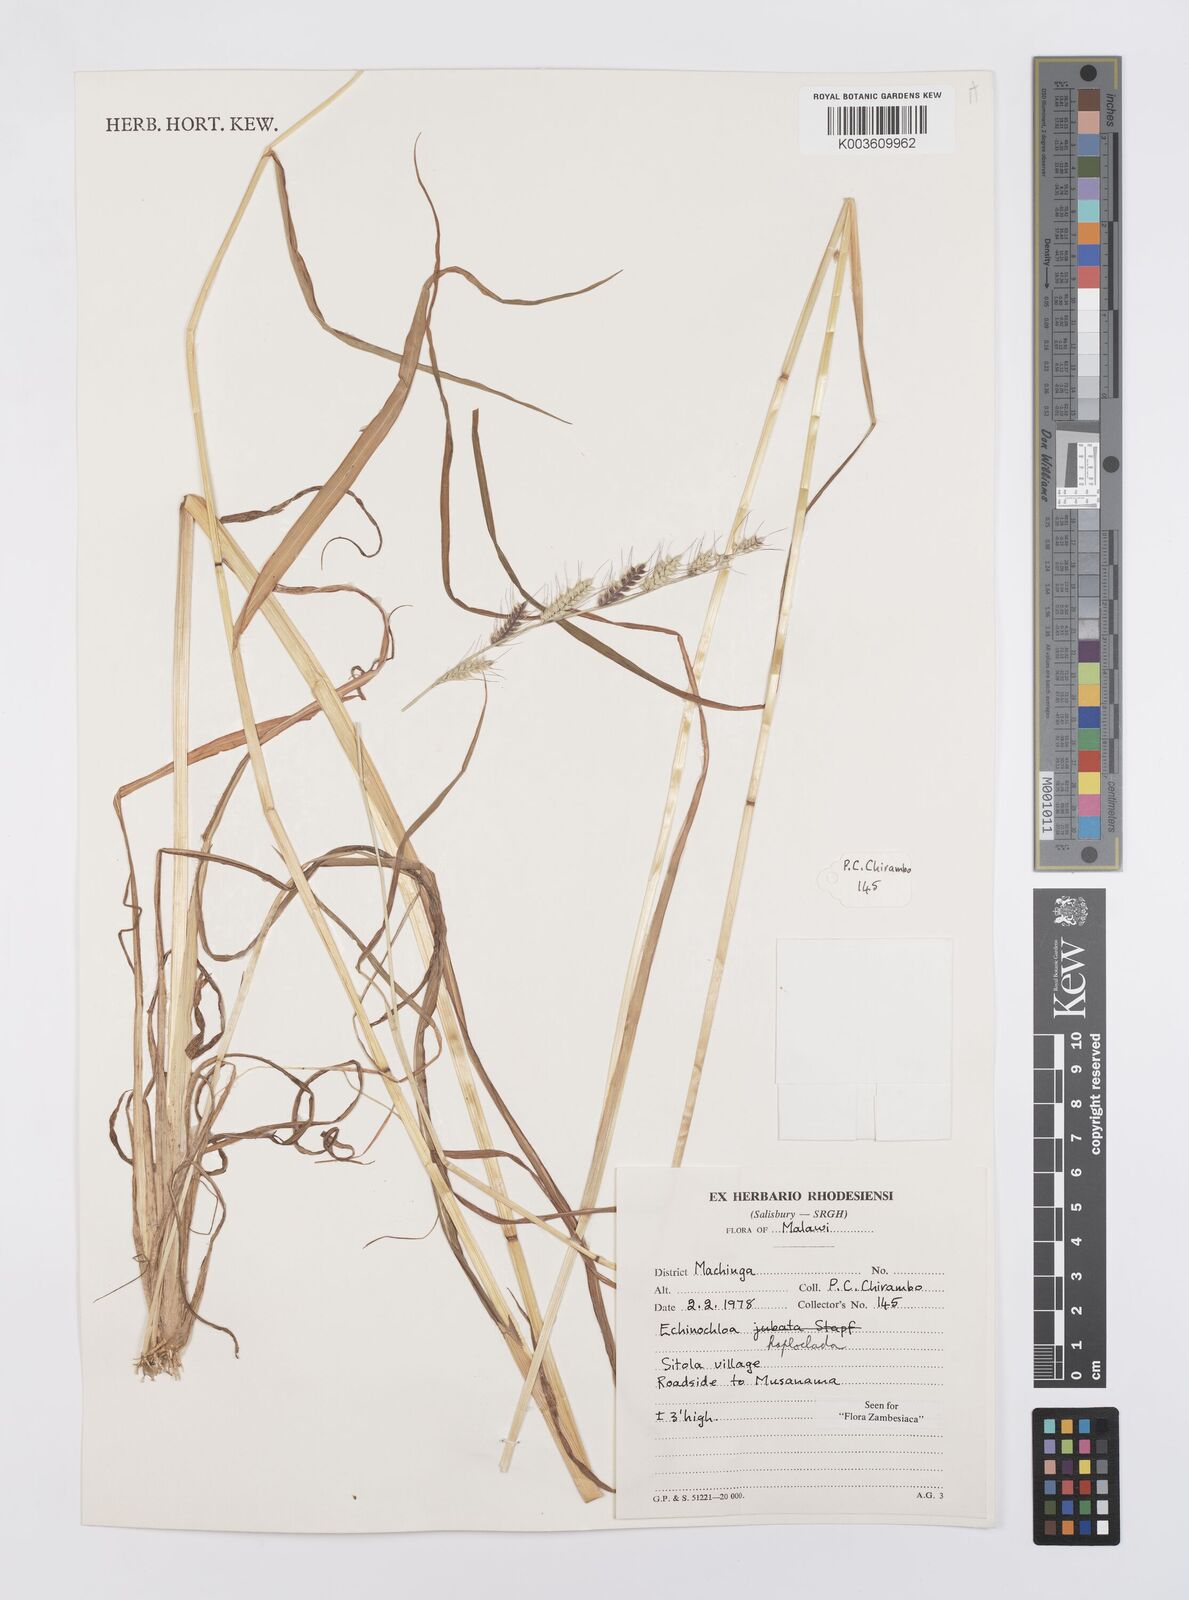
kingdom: Plantae
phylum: Tracheophyta
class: Liliopsida
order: Poales
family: Poaceae
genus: Echinochloa
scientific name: Echinochloa haploclada
